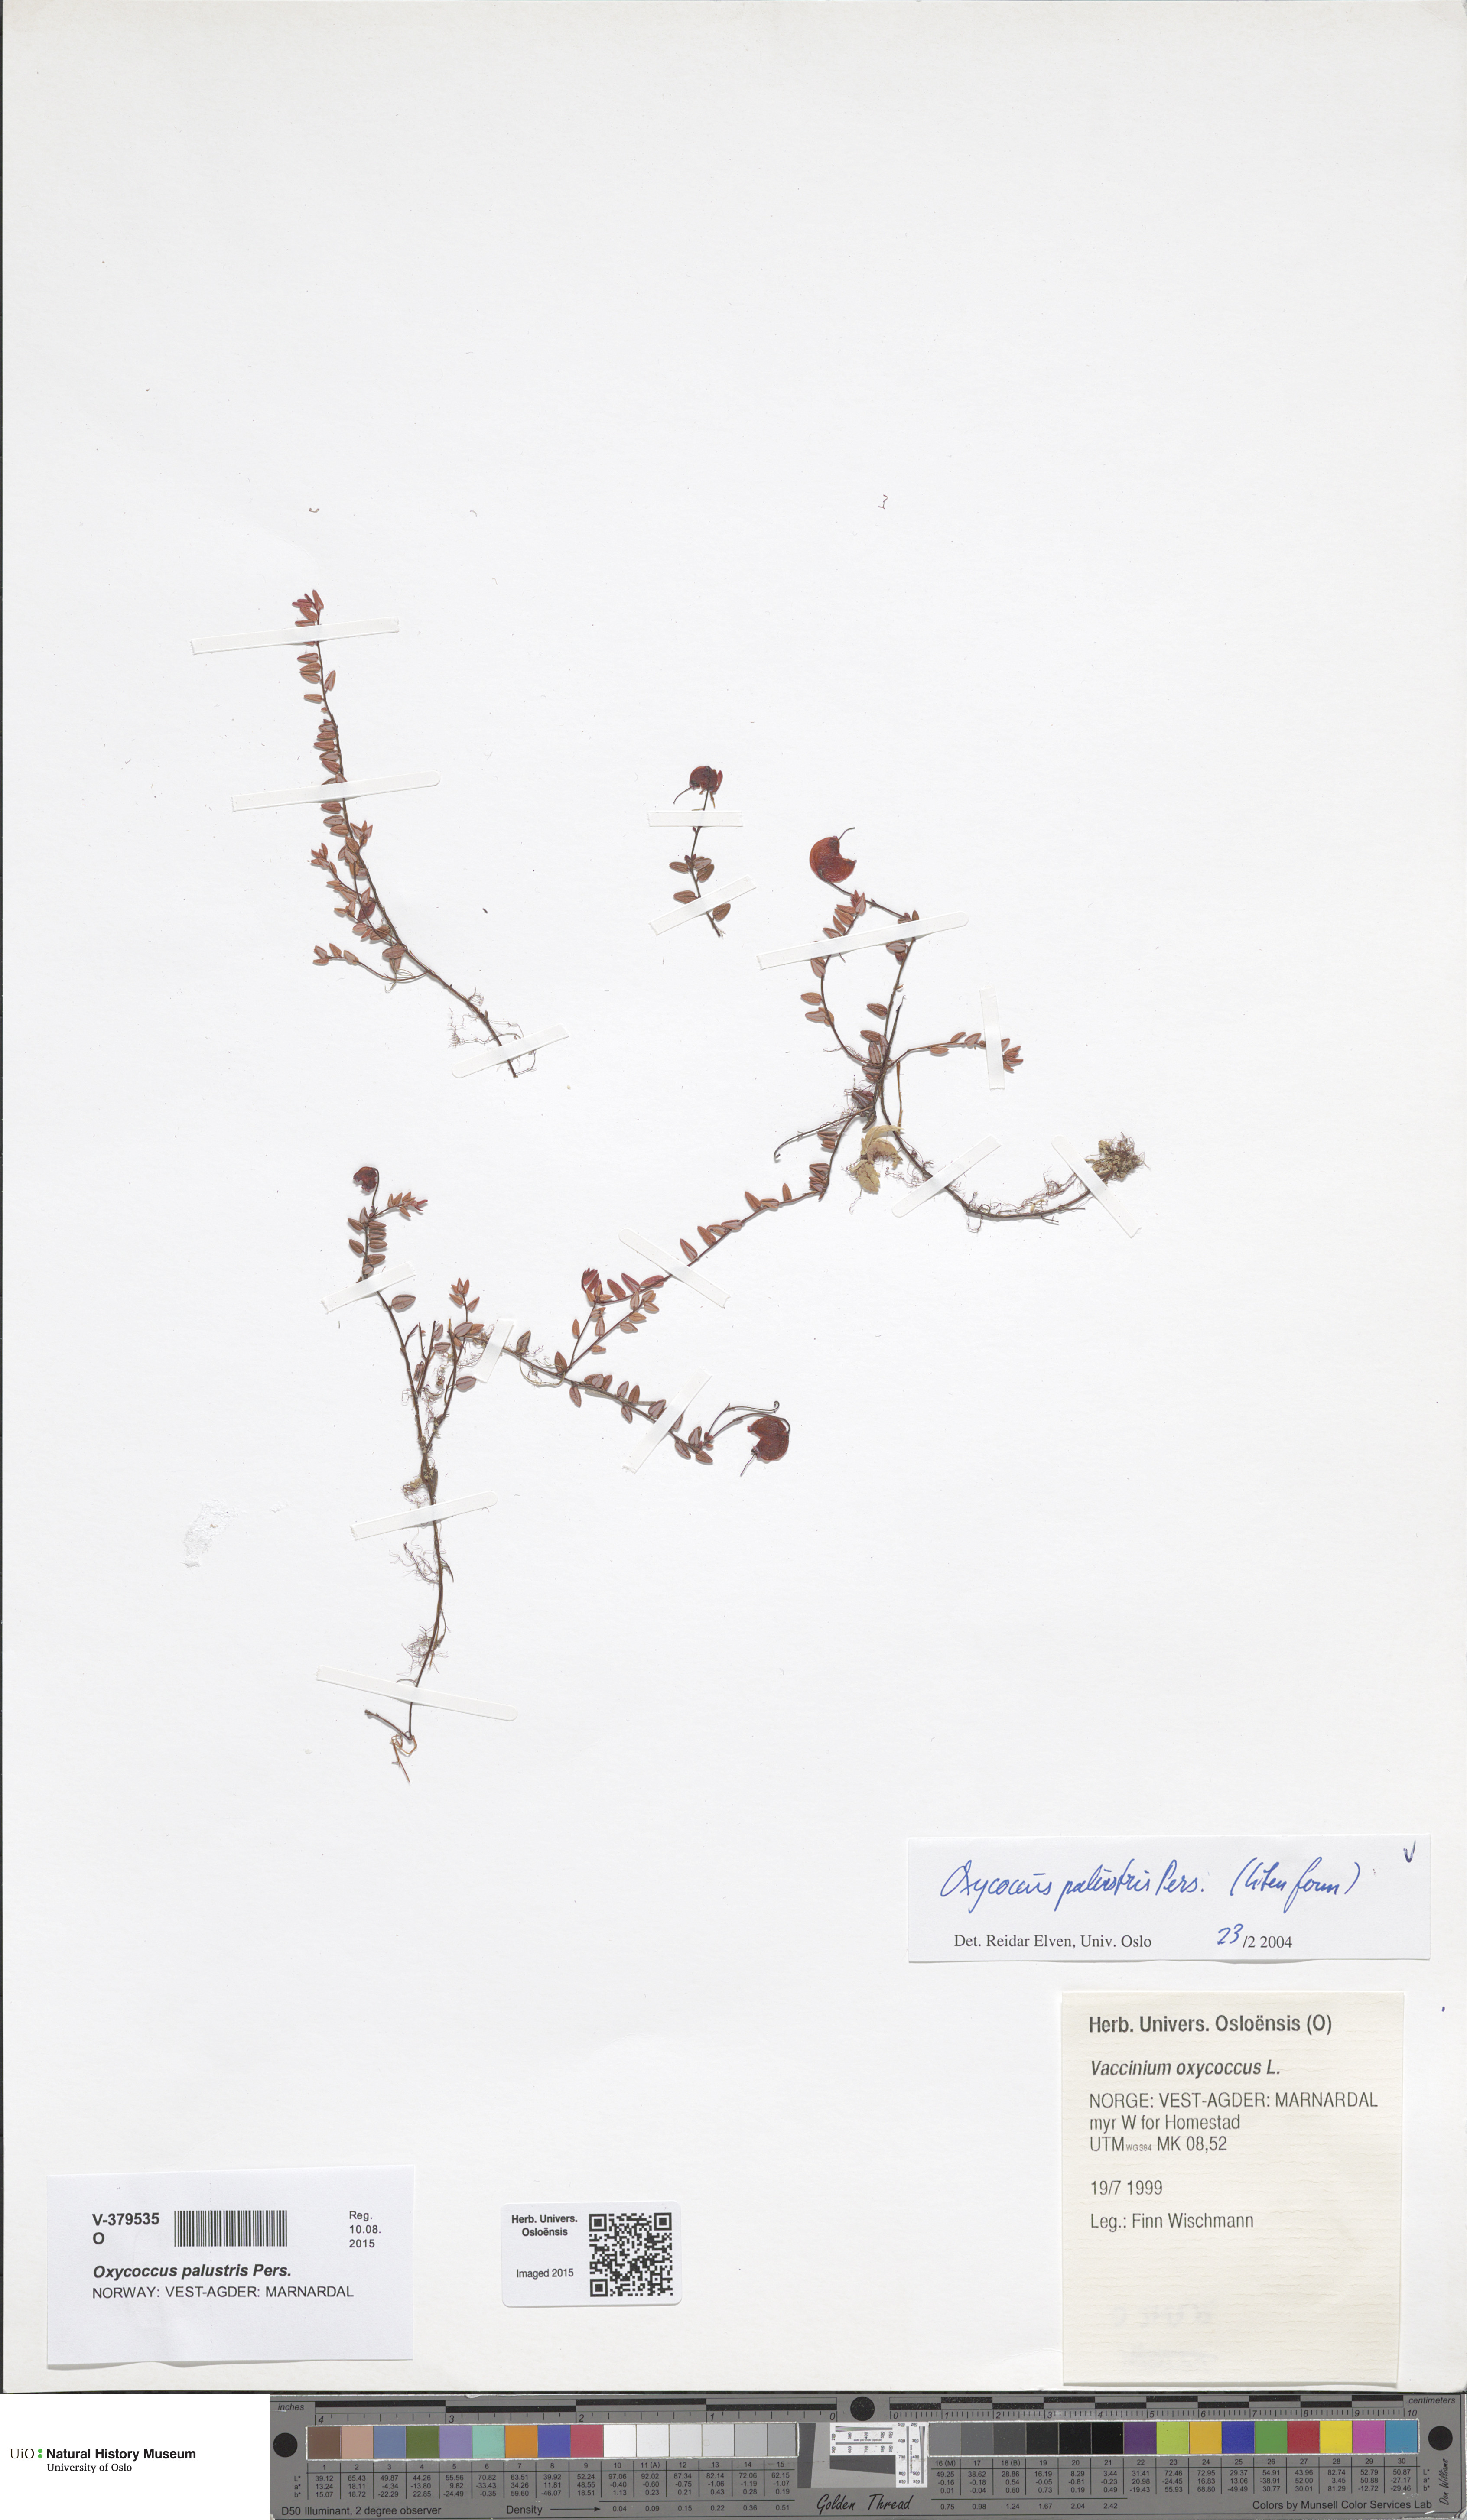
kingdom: Plantae
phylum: Tracheophyta
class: Magnoliopsida
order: Ericales
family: Ericaceae
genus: Vaccinium
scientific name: Vaccinium oxycoccos
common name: Cranberry
